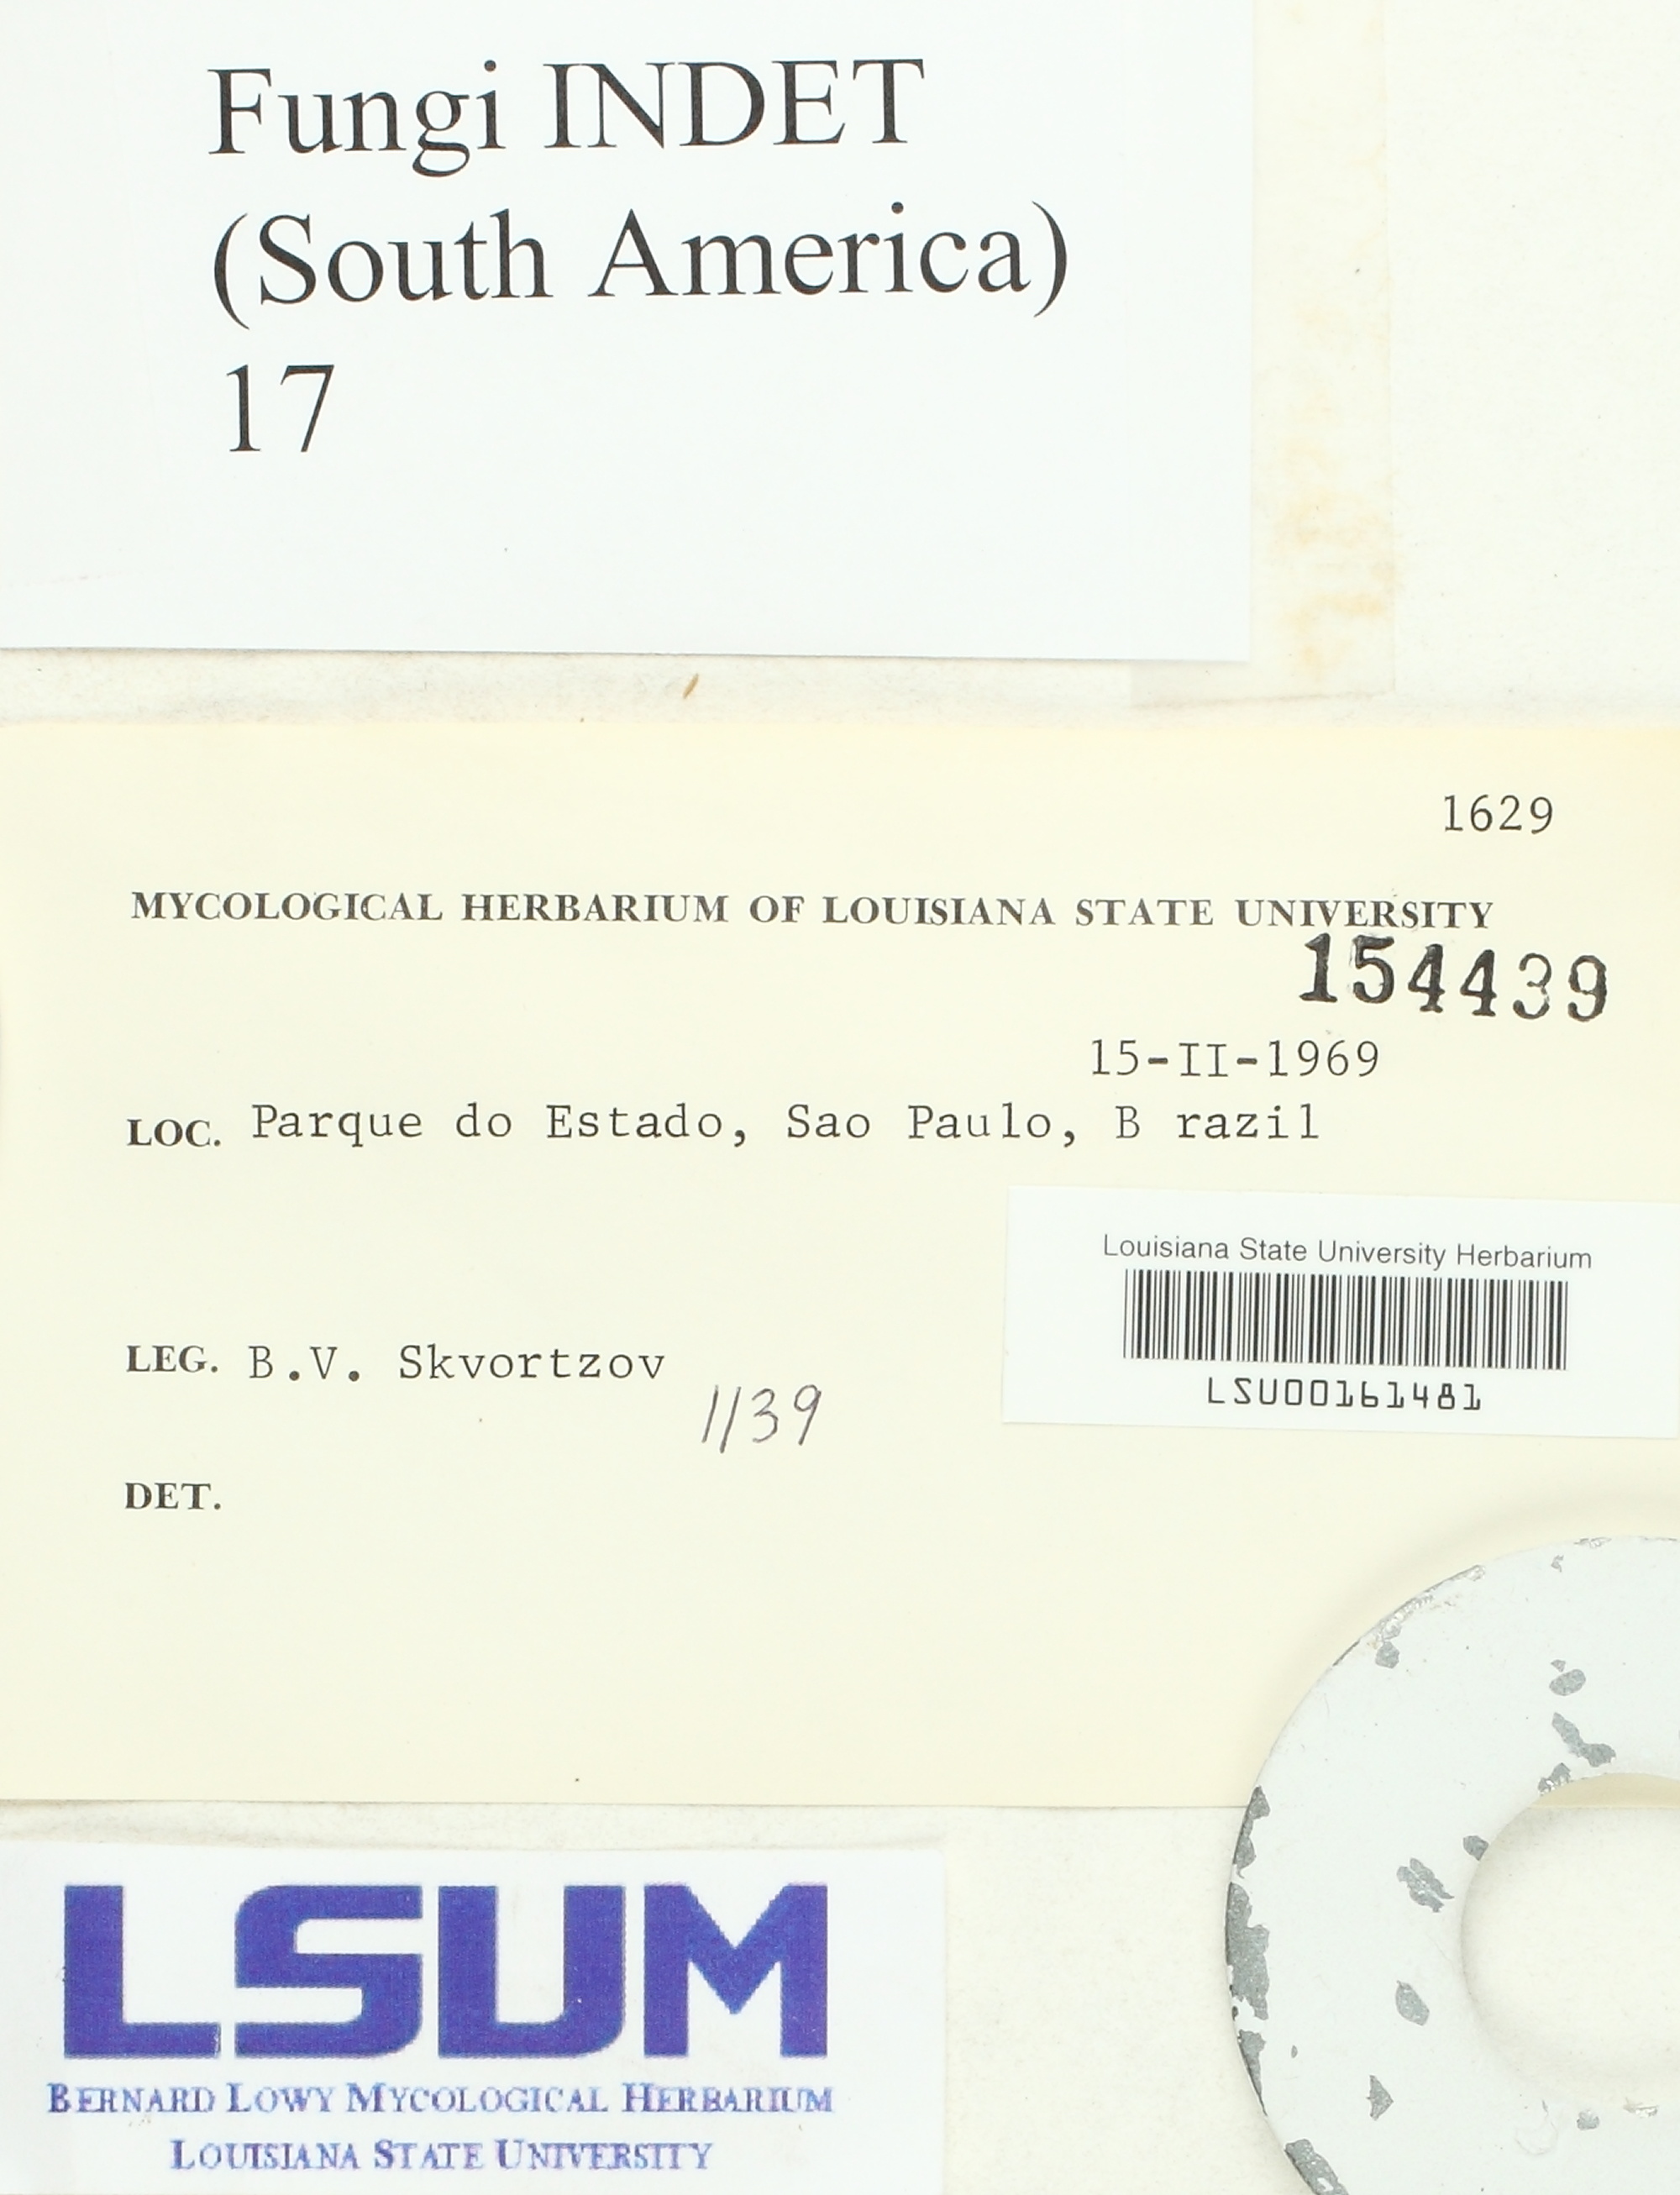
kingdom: Fungi
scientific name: Fungi
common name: Fungi
